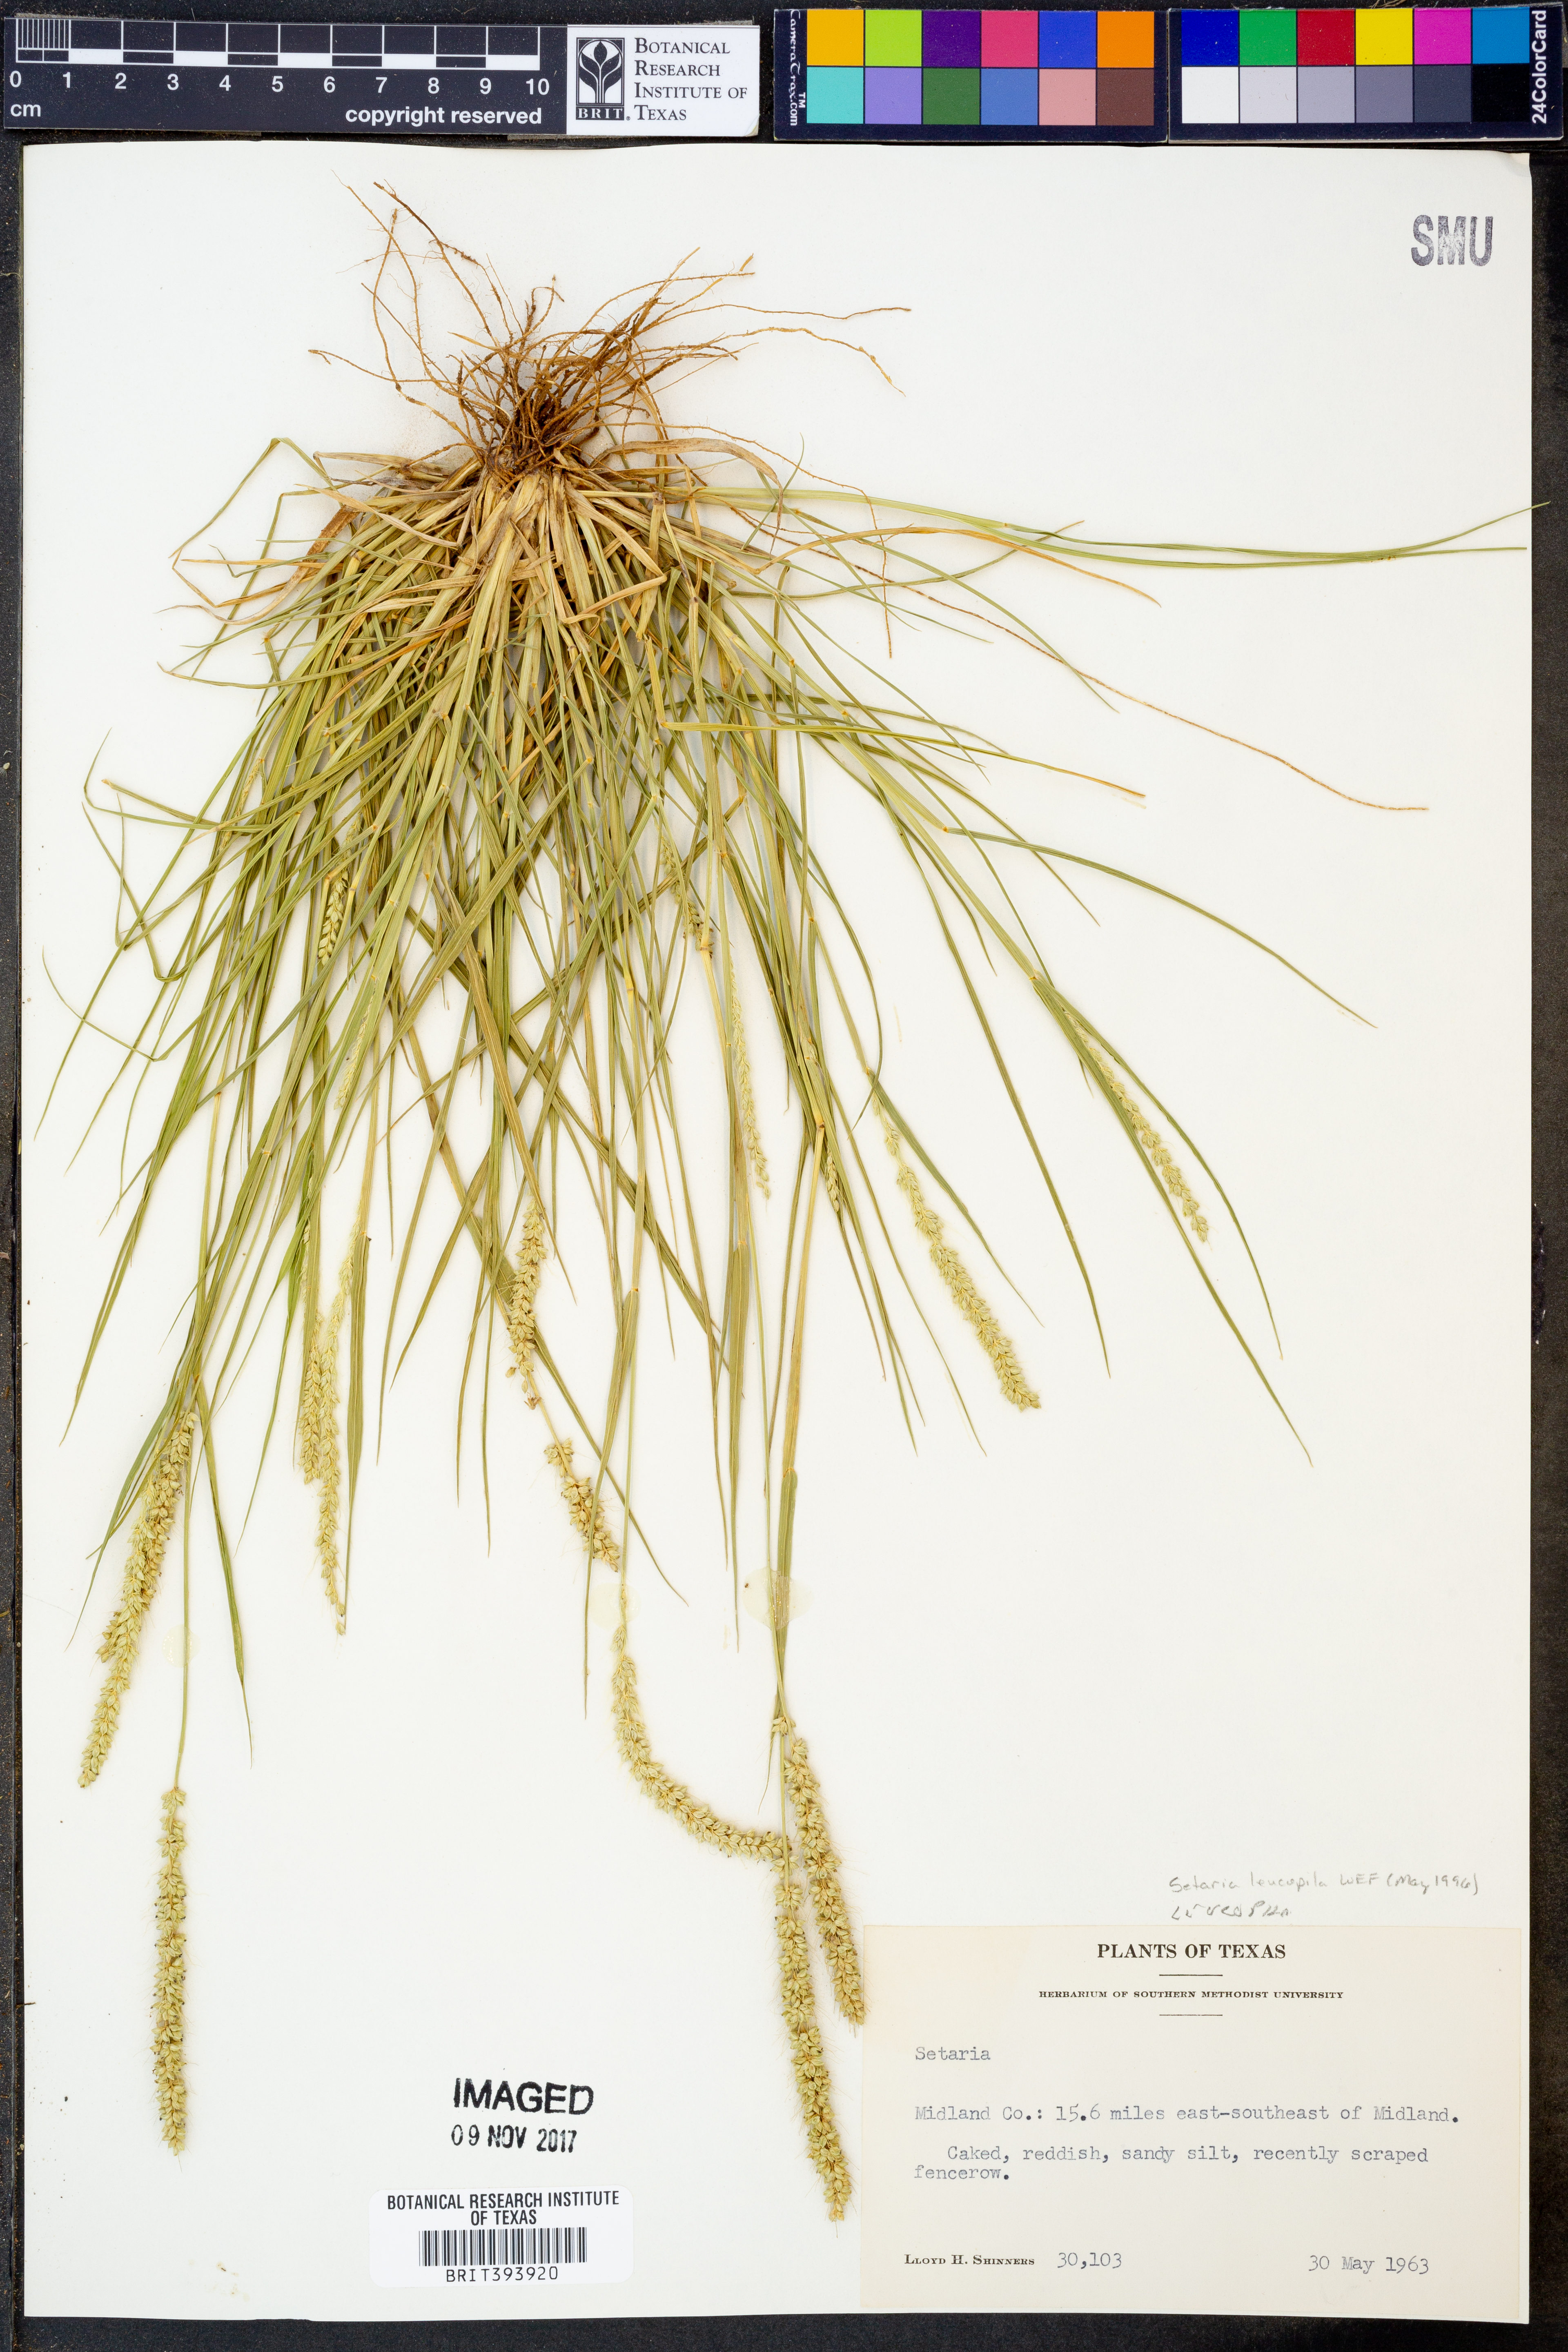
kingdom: Plantae
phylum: Tracheophyta
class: Liliopsida
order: Poales
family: Poaceae
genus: Setaria
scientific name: Setaria leucopila
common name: Plains bristle grass
